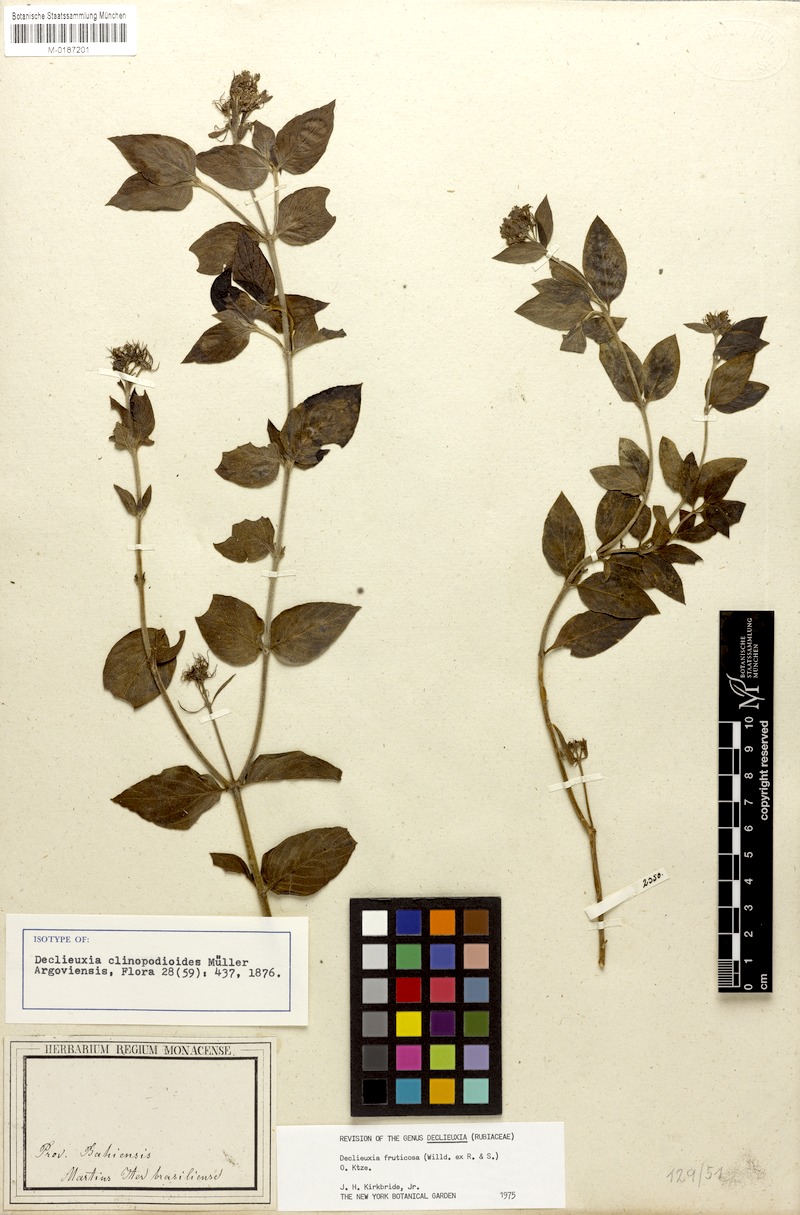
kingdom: Plantae
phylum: Tracheophyta
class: Magnoliopsida
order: Gentianales
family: Rubiaceae
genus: Declieuxia
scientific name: Declieuxia fruticosa
